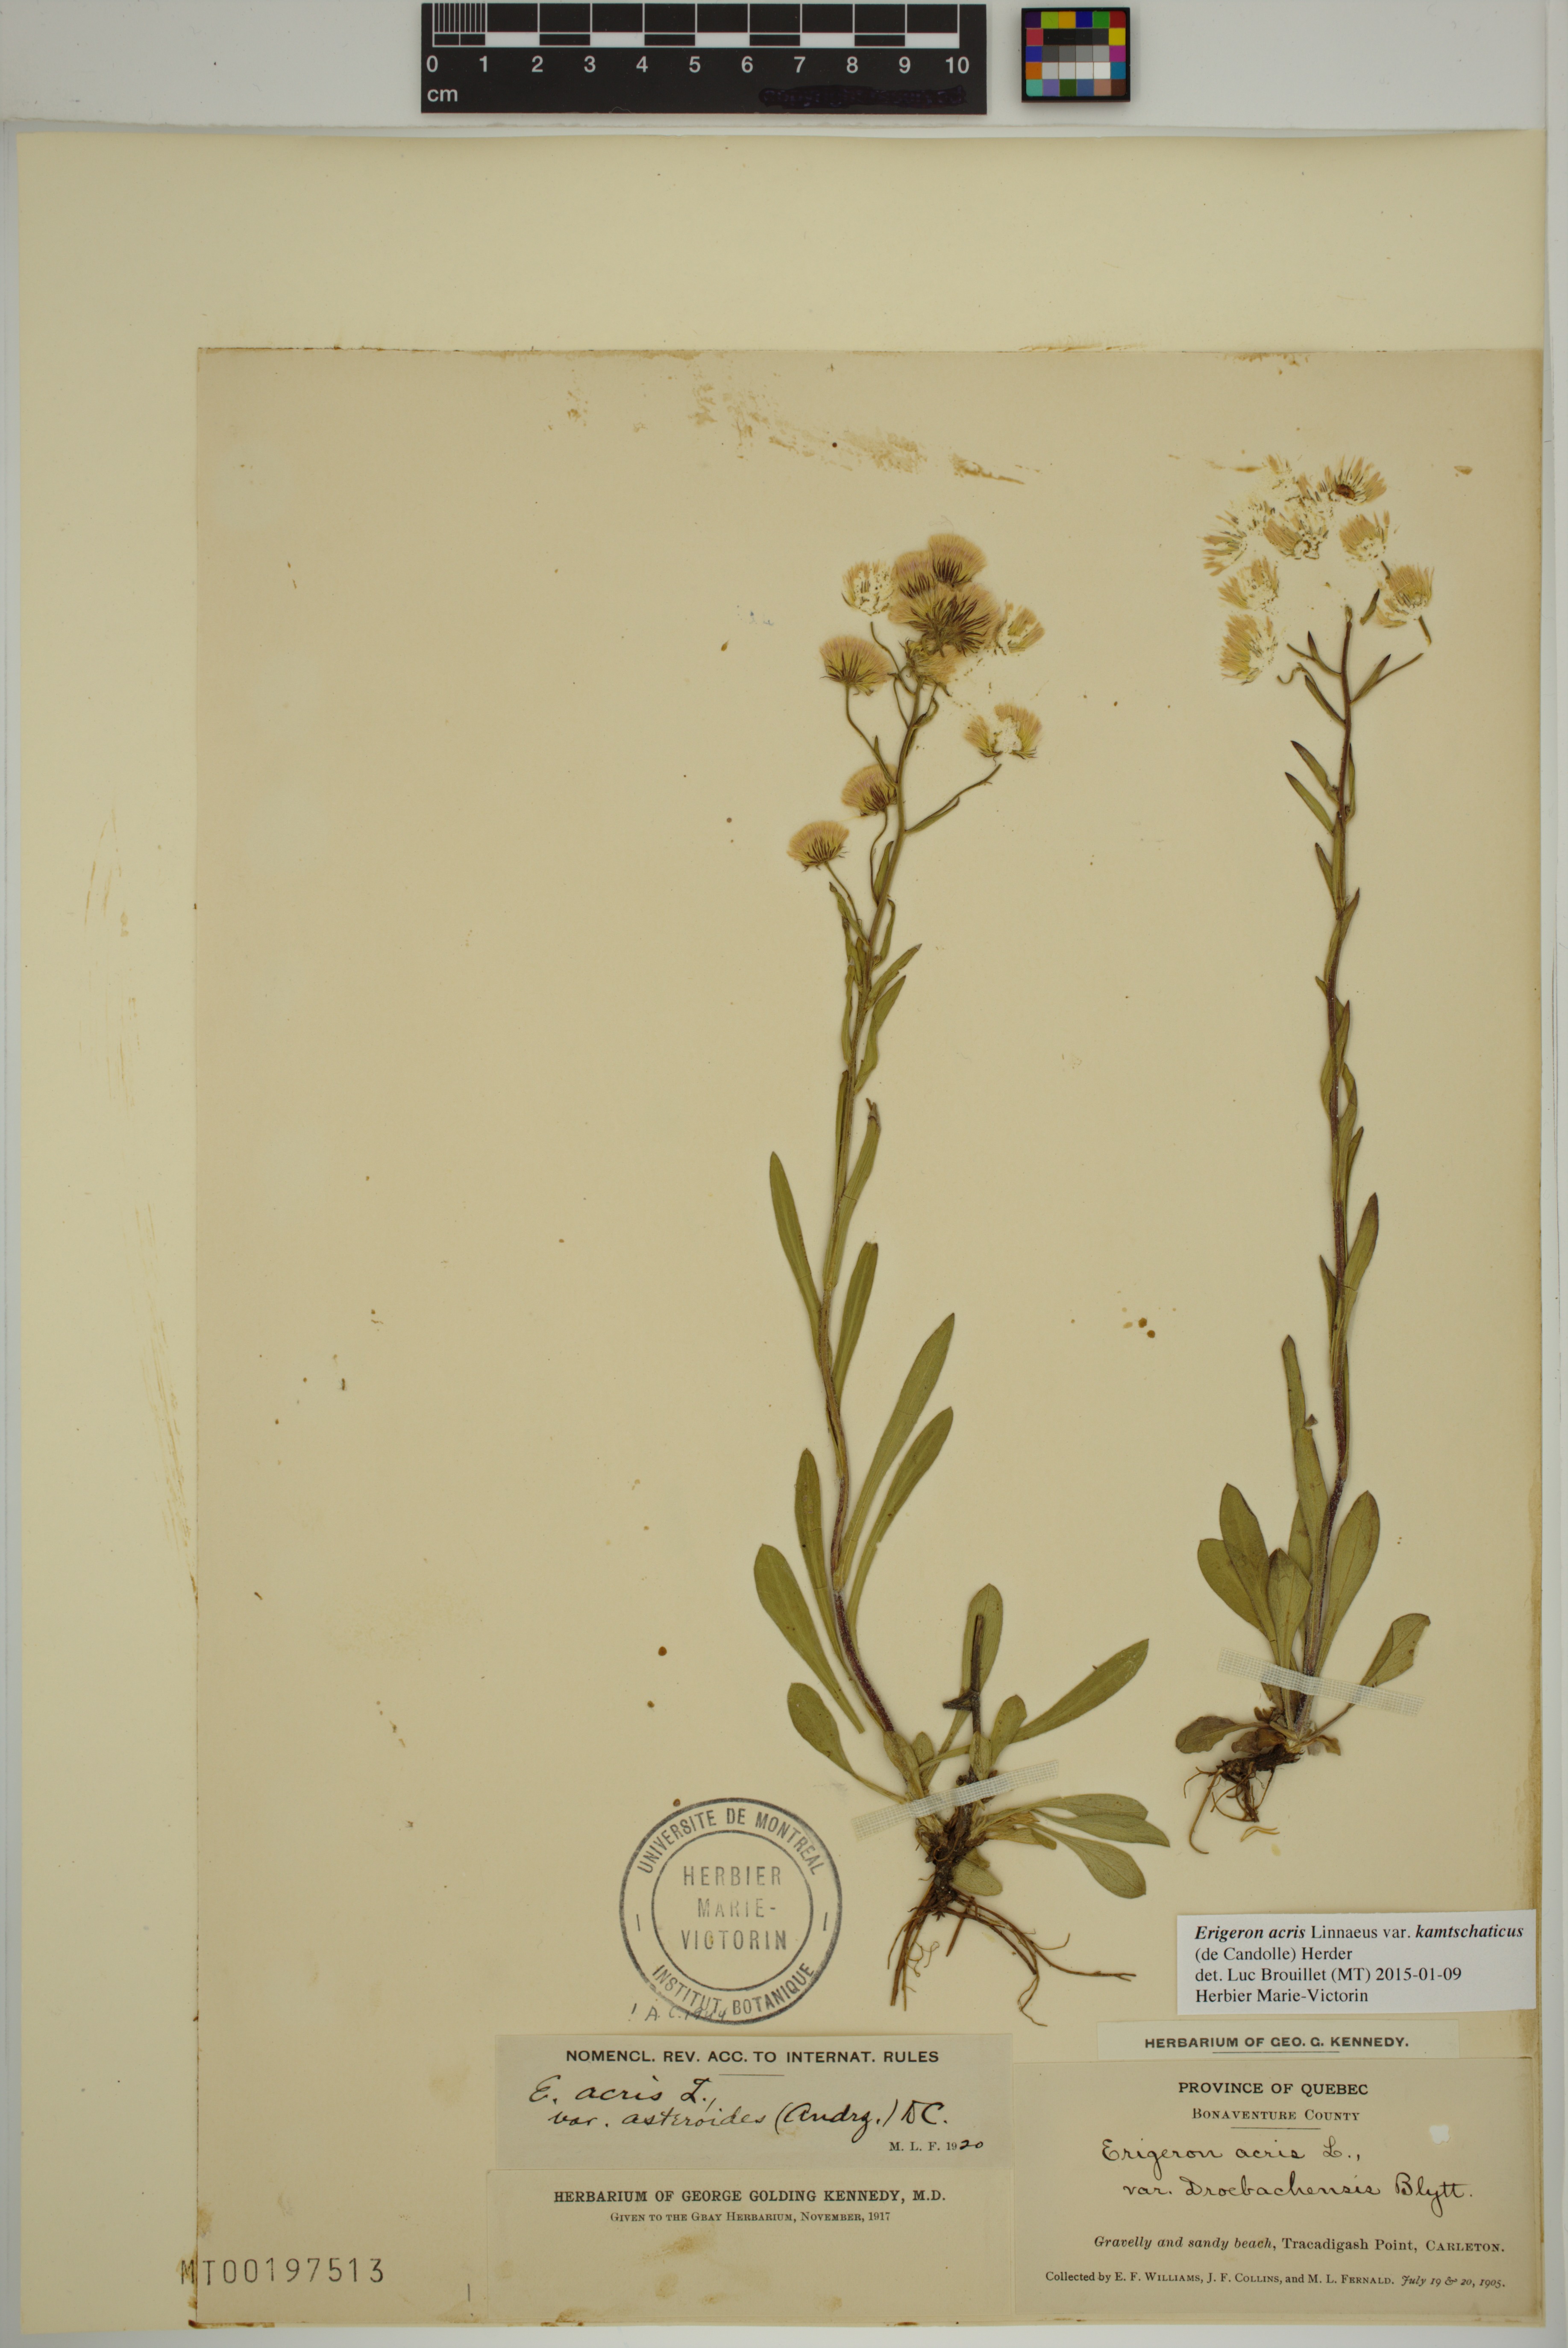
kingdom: Plantae
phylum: Tracheophyta
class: Magnoliopsida
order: Asterales
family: Asteraceae
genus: Erigeron
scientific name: Erigeron kamtschaticus
